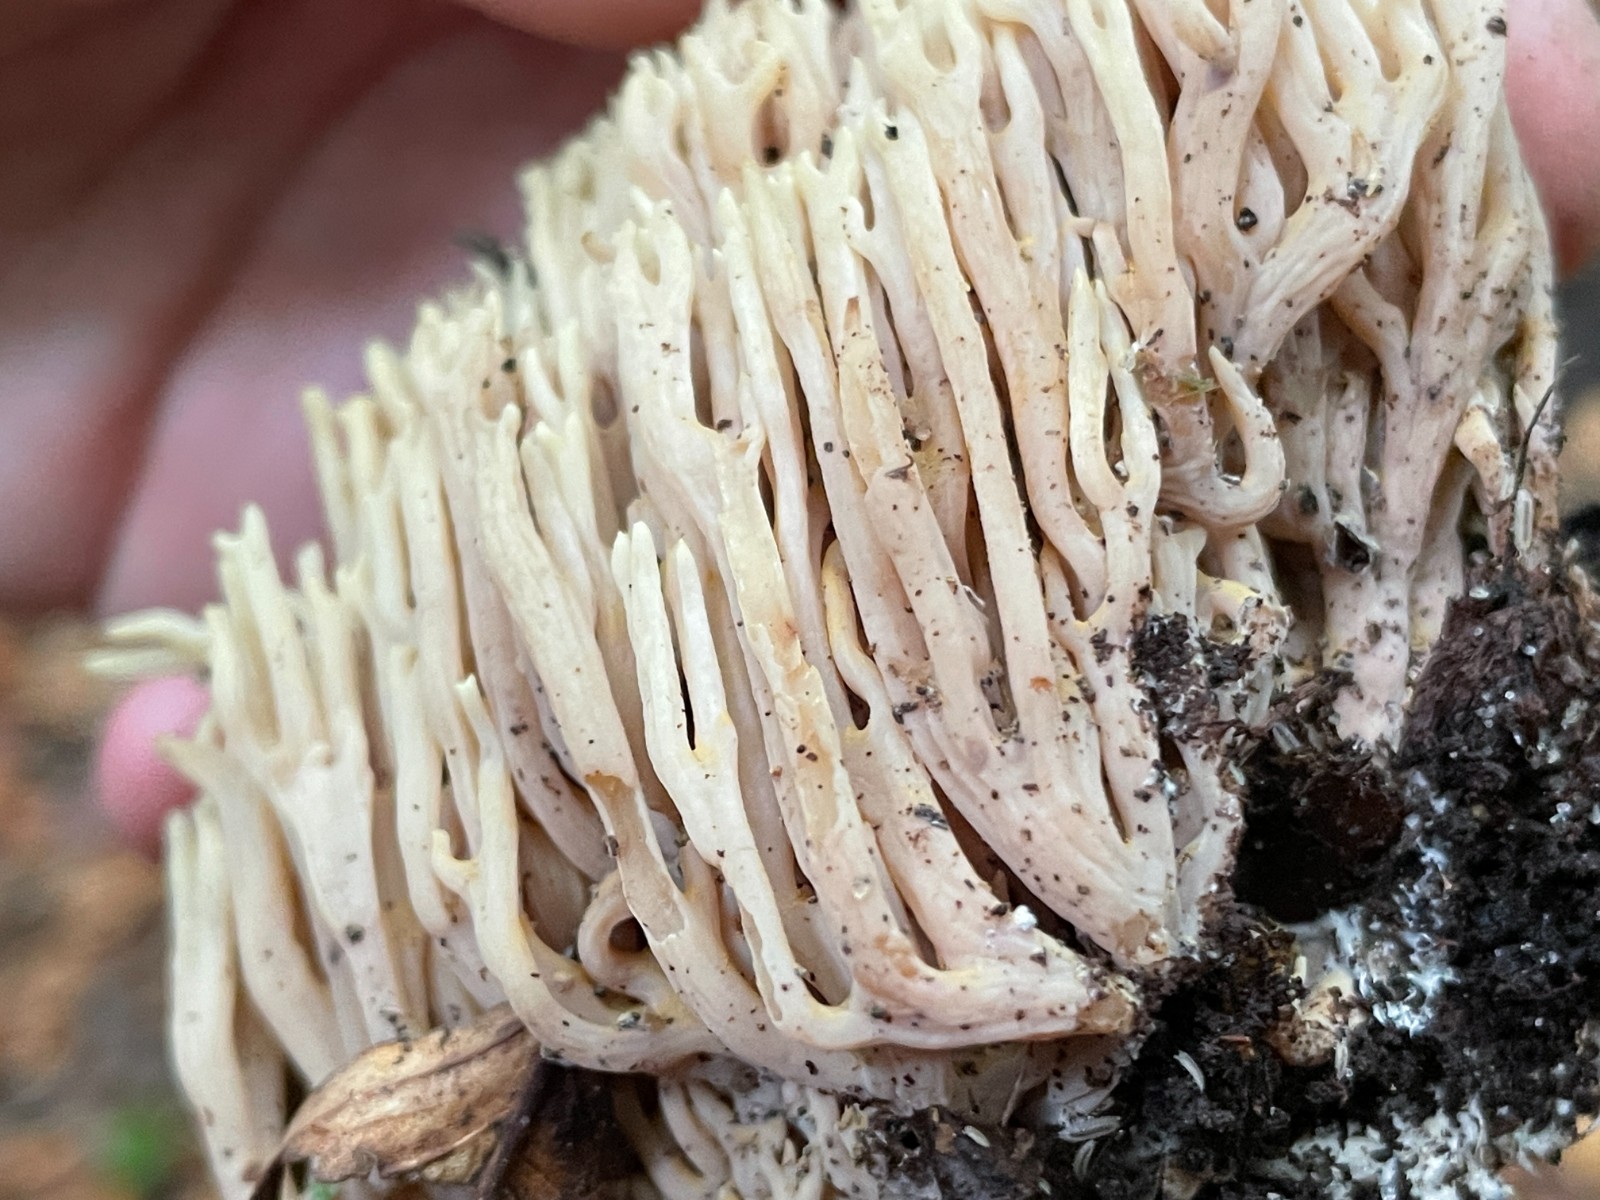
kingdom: Fungi
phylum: Basidiomycota
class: Agaricomycetes
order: Gomphales
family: Gomphaceae
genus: Ramaria
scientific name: Ramaria stricta
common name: rank koralsvamp
